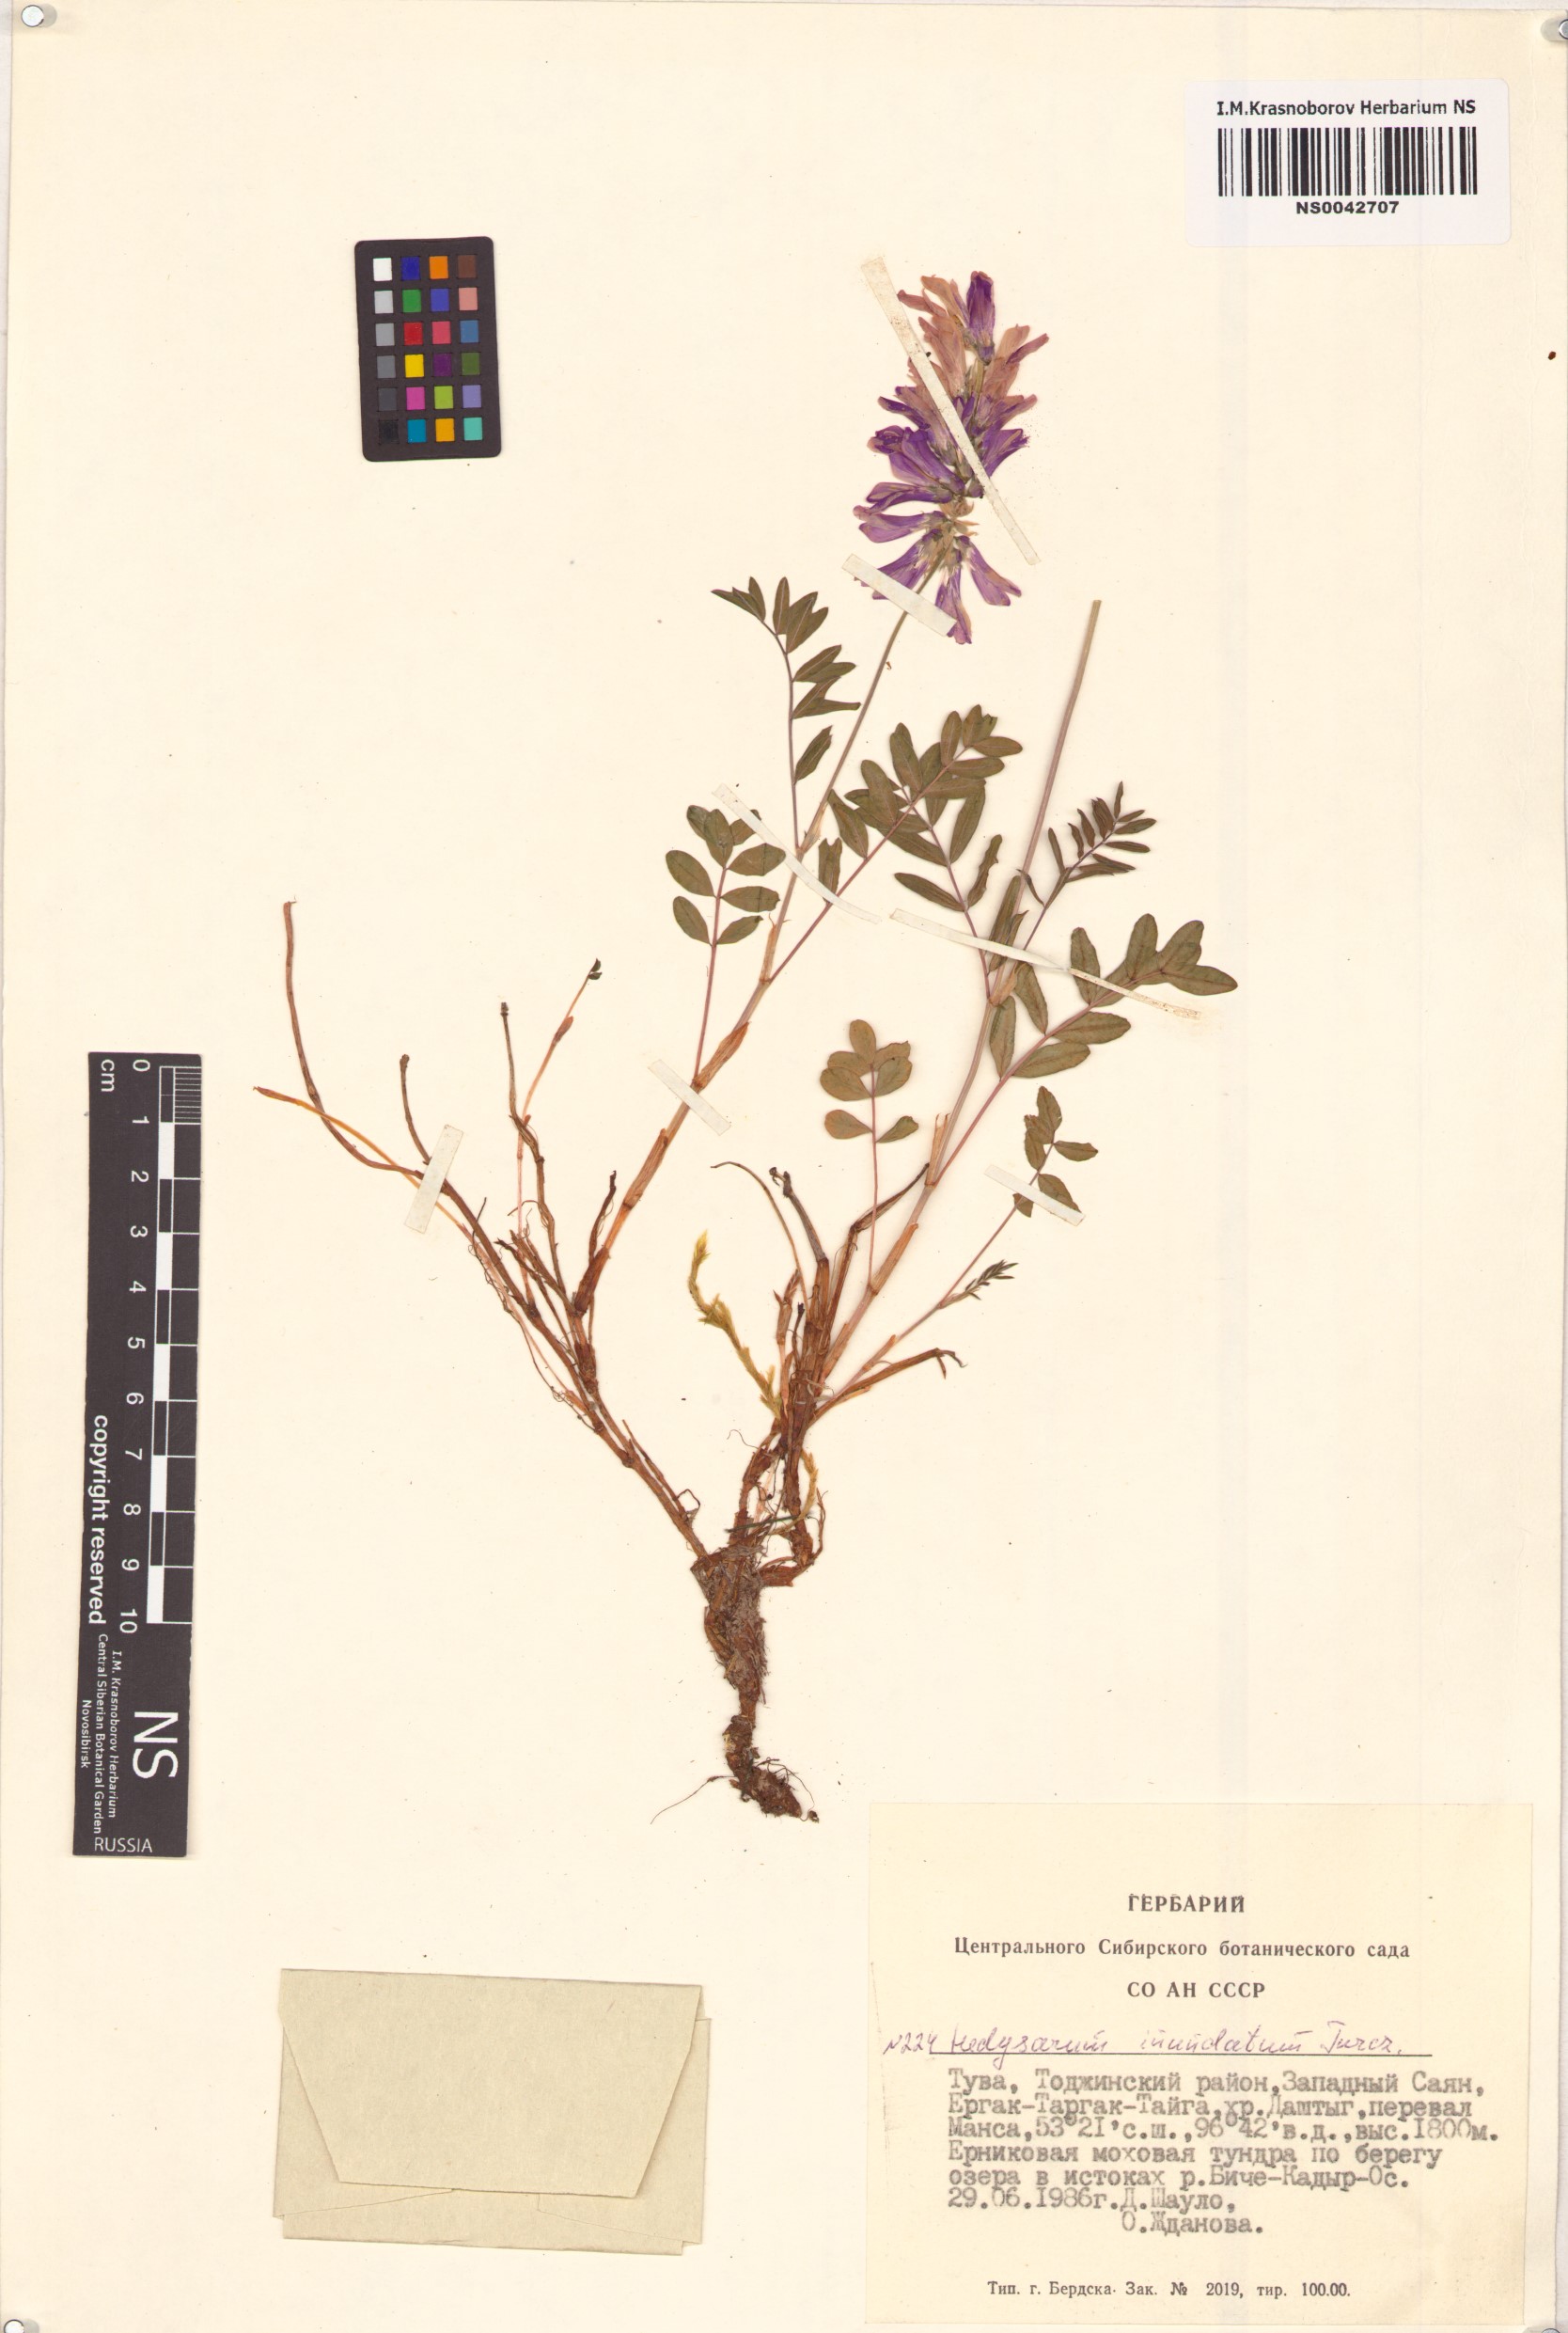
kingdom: Plantae
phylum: Tracheophyta
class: Magnoliopsida
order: Fabales
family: Fabaceae
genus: Hedysarum
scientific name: Hedysarum inundatum
